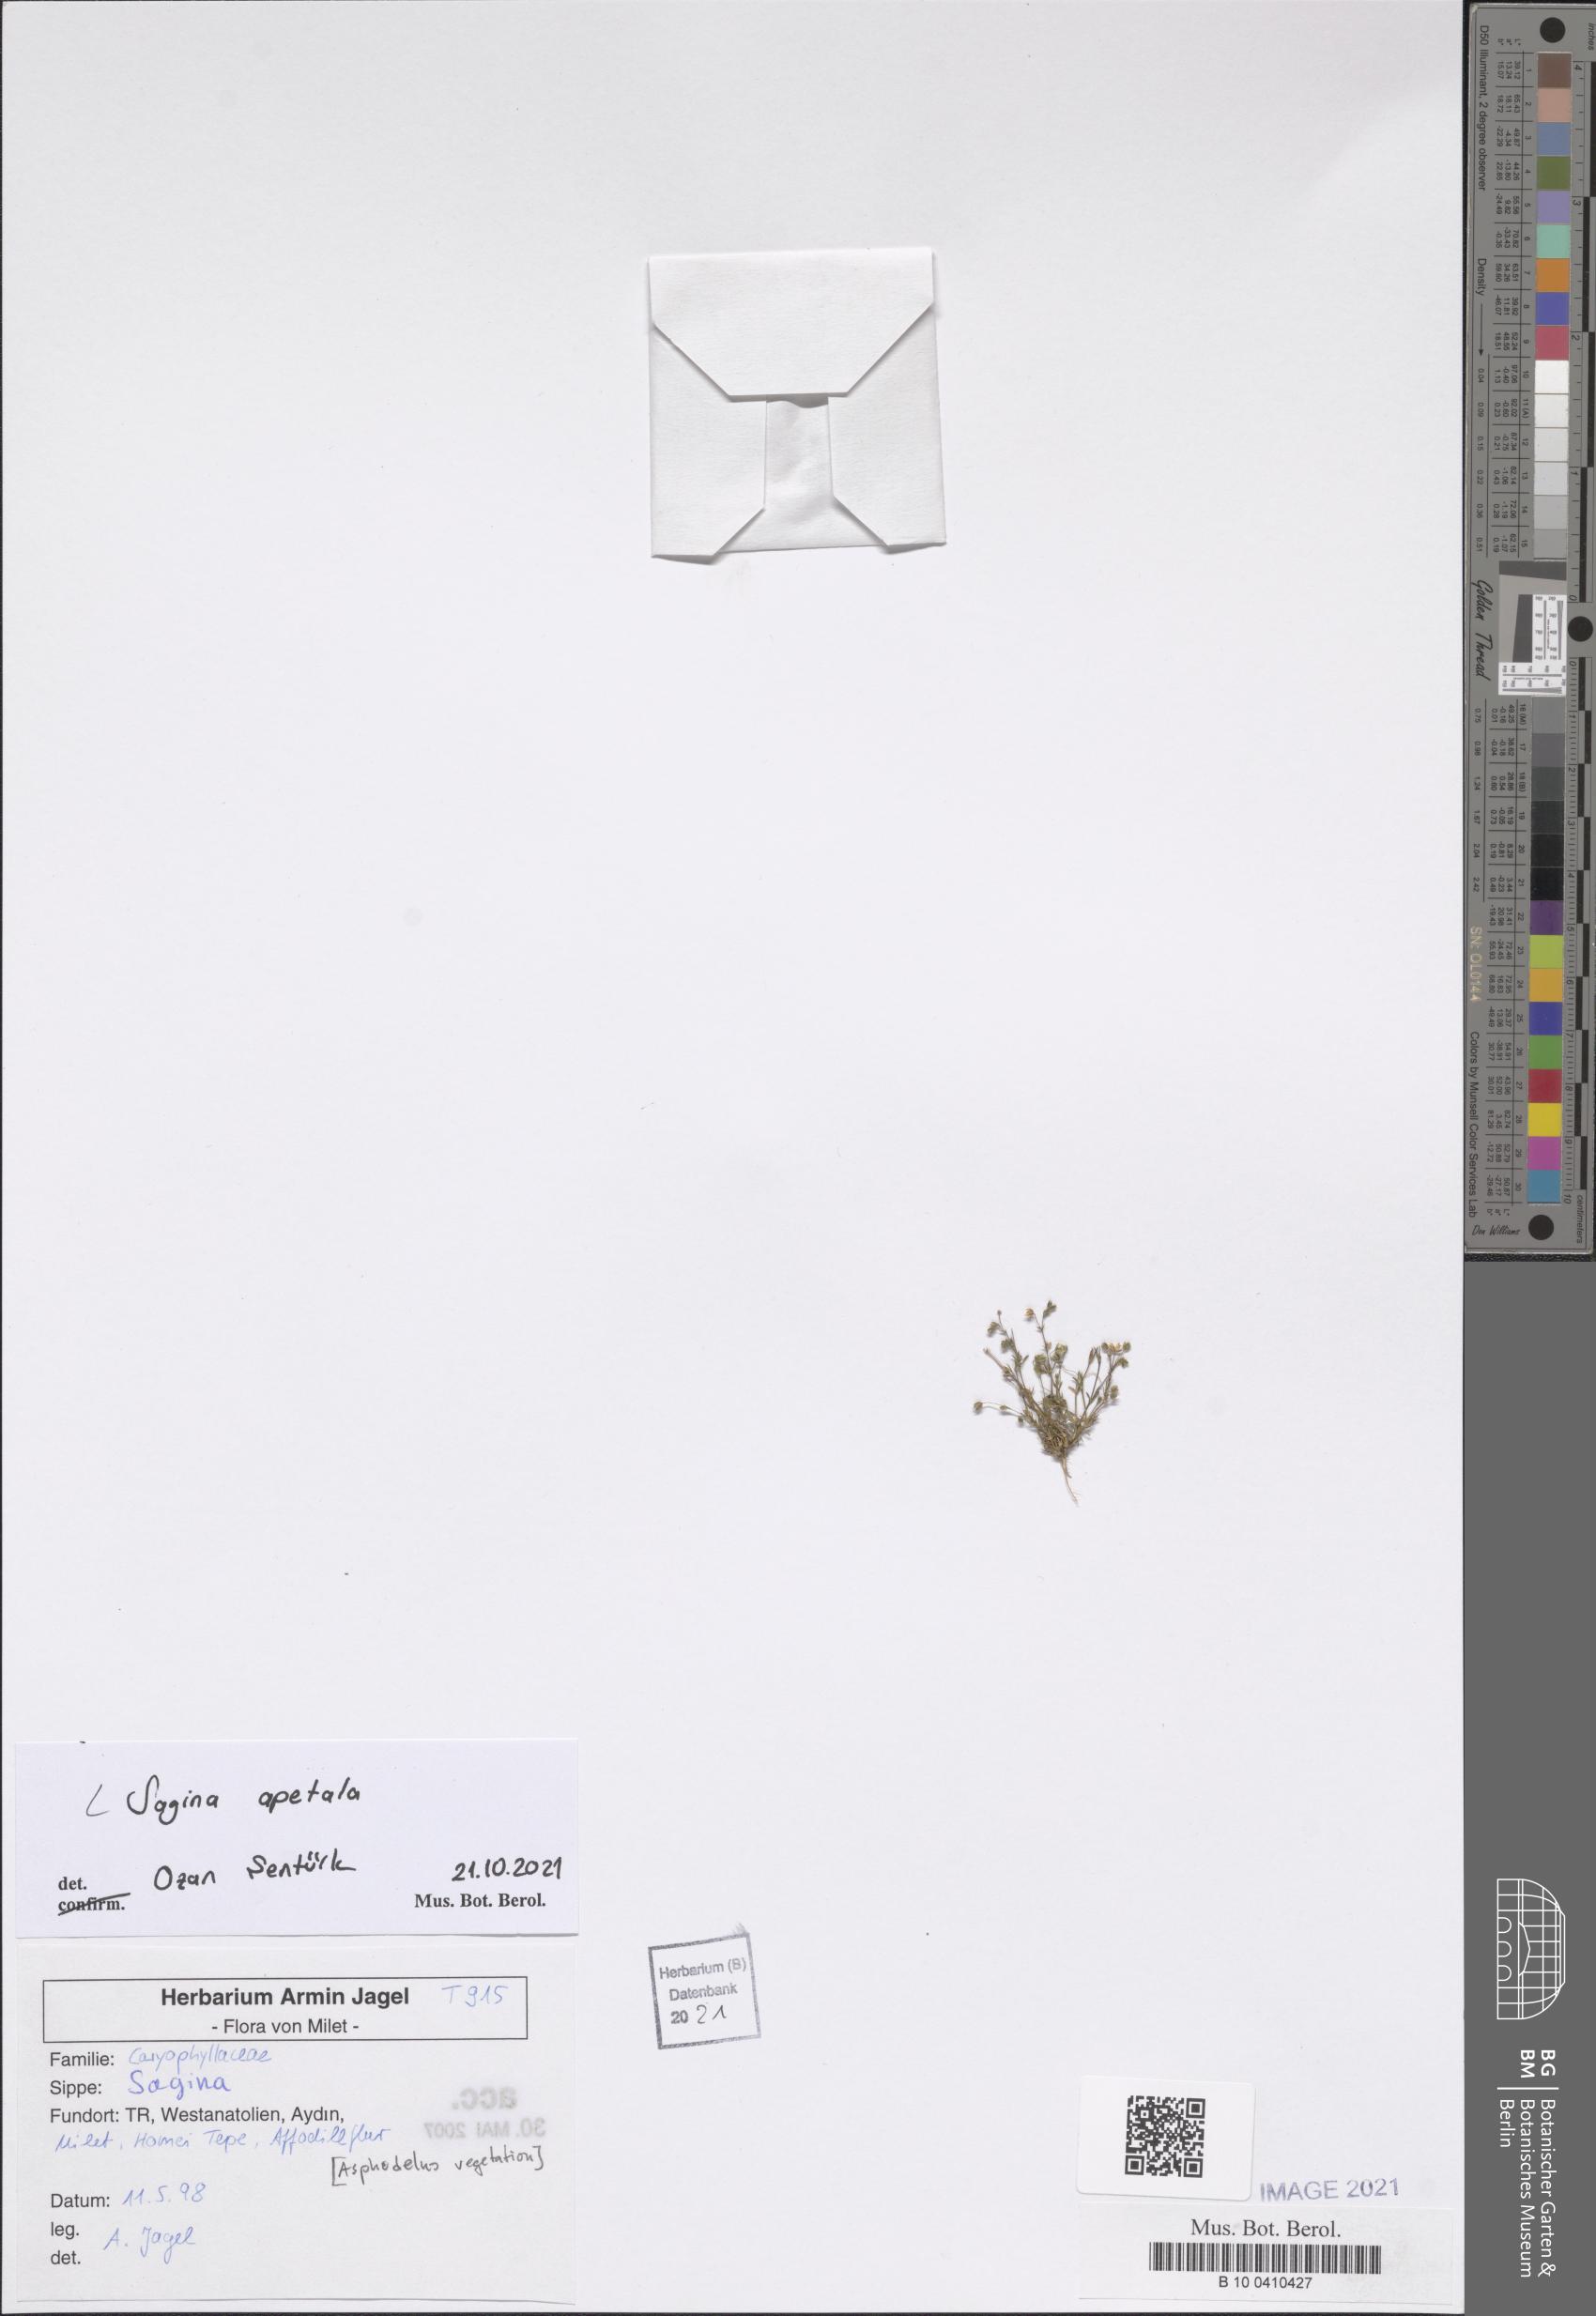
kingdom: Plantae
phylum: Tracheophyta
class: Magnoliopsida
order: Caryophyllales
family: Caryophyllaceae
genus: Sagina
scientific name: Sagina apetala
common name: Annual pearlwort
